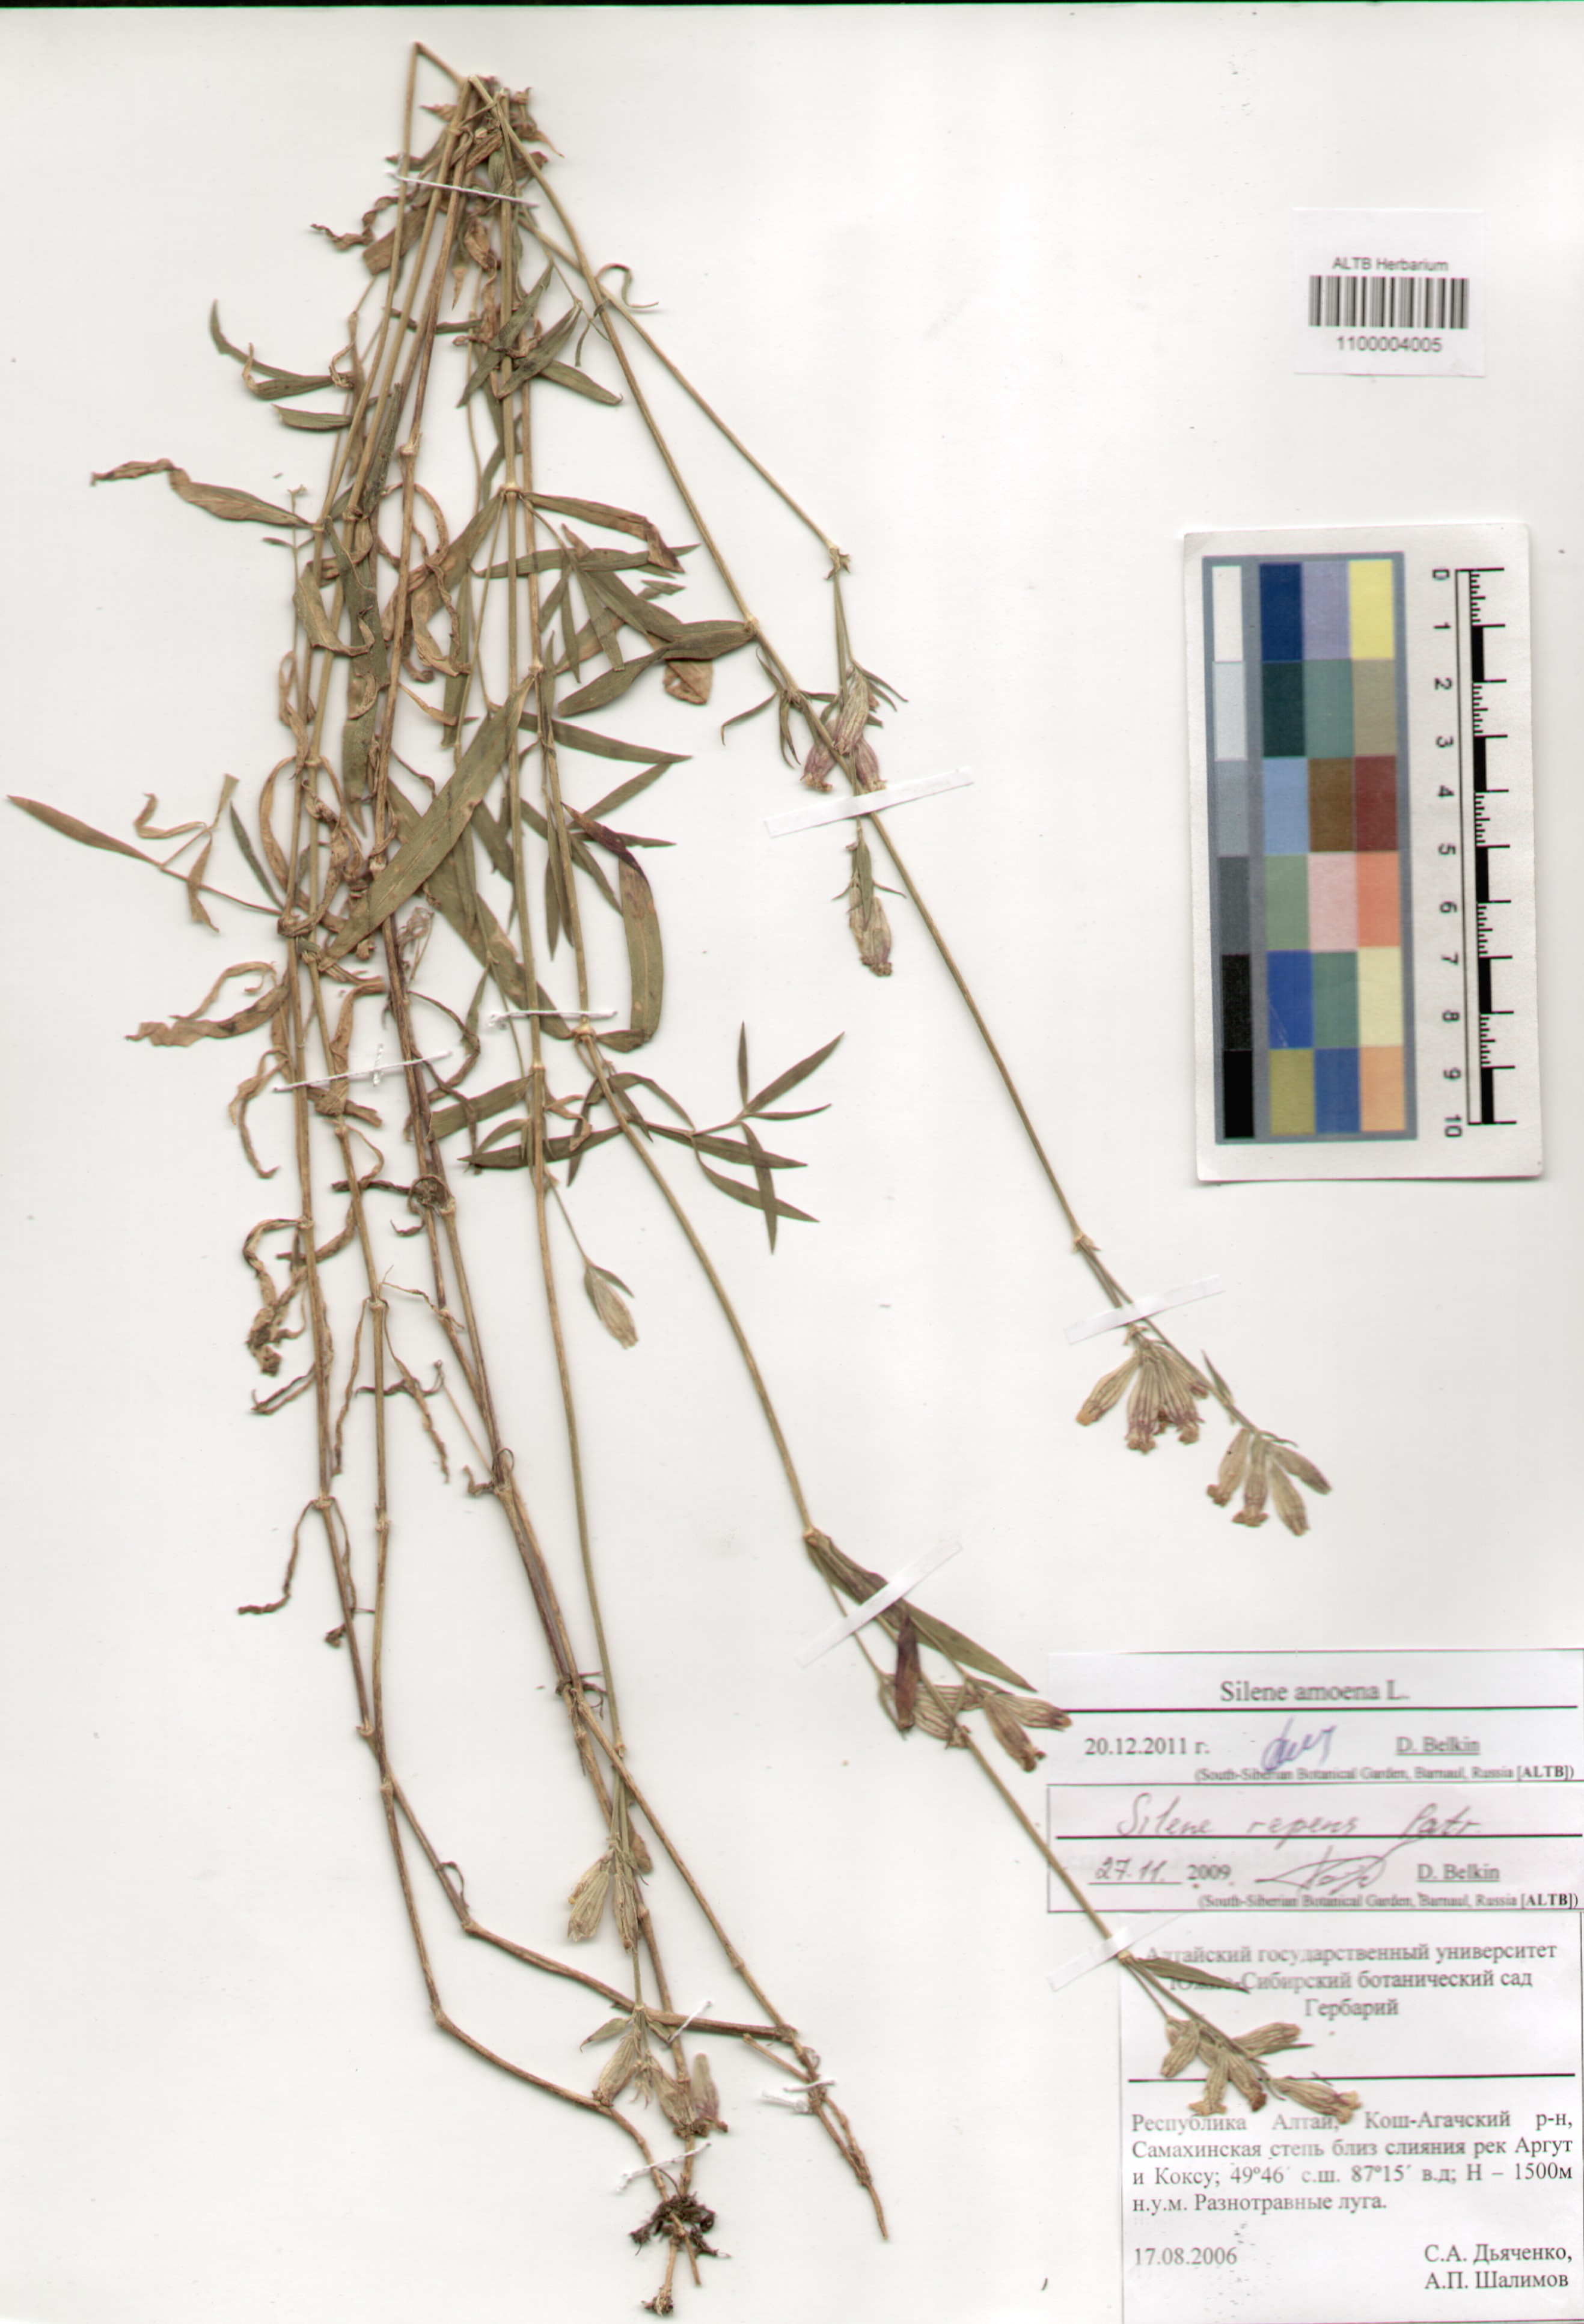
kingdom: Plantae
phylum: Tracheophyta
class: Magnoliopsida
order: Caryophyllales
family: Caryophyllaceae
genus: Silene
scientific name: Silene amoena
